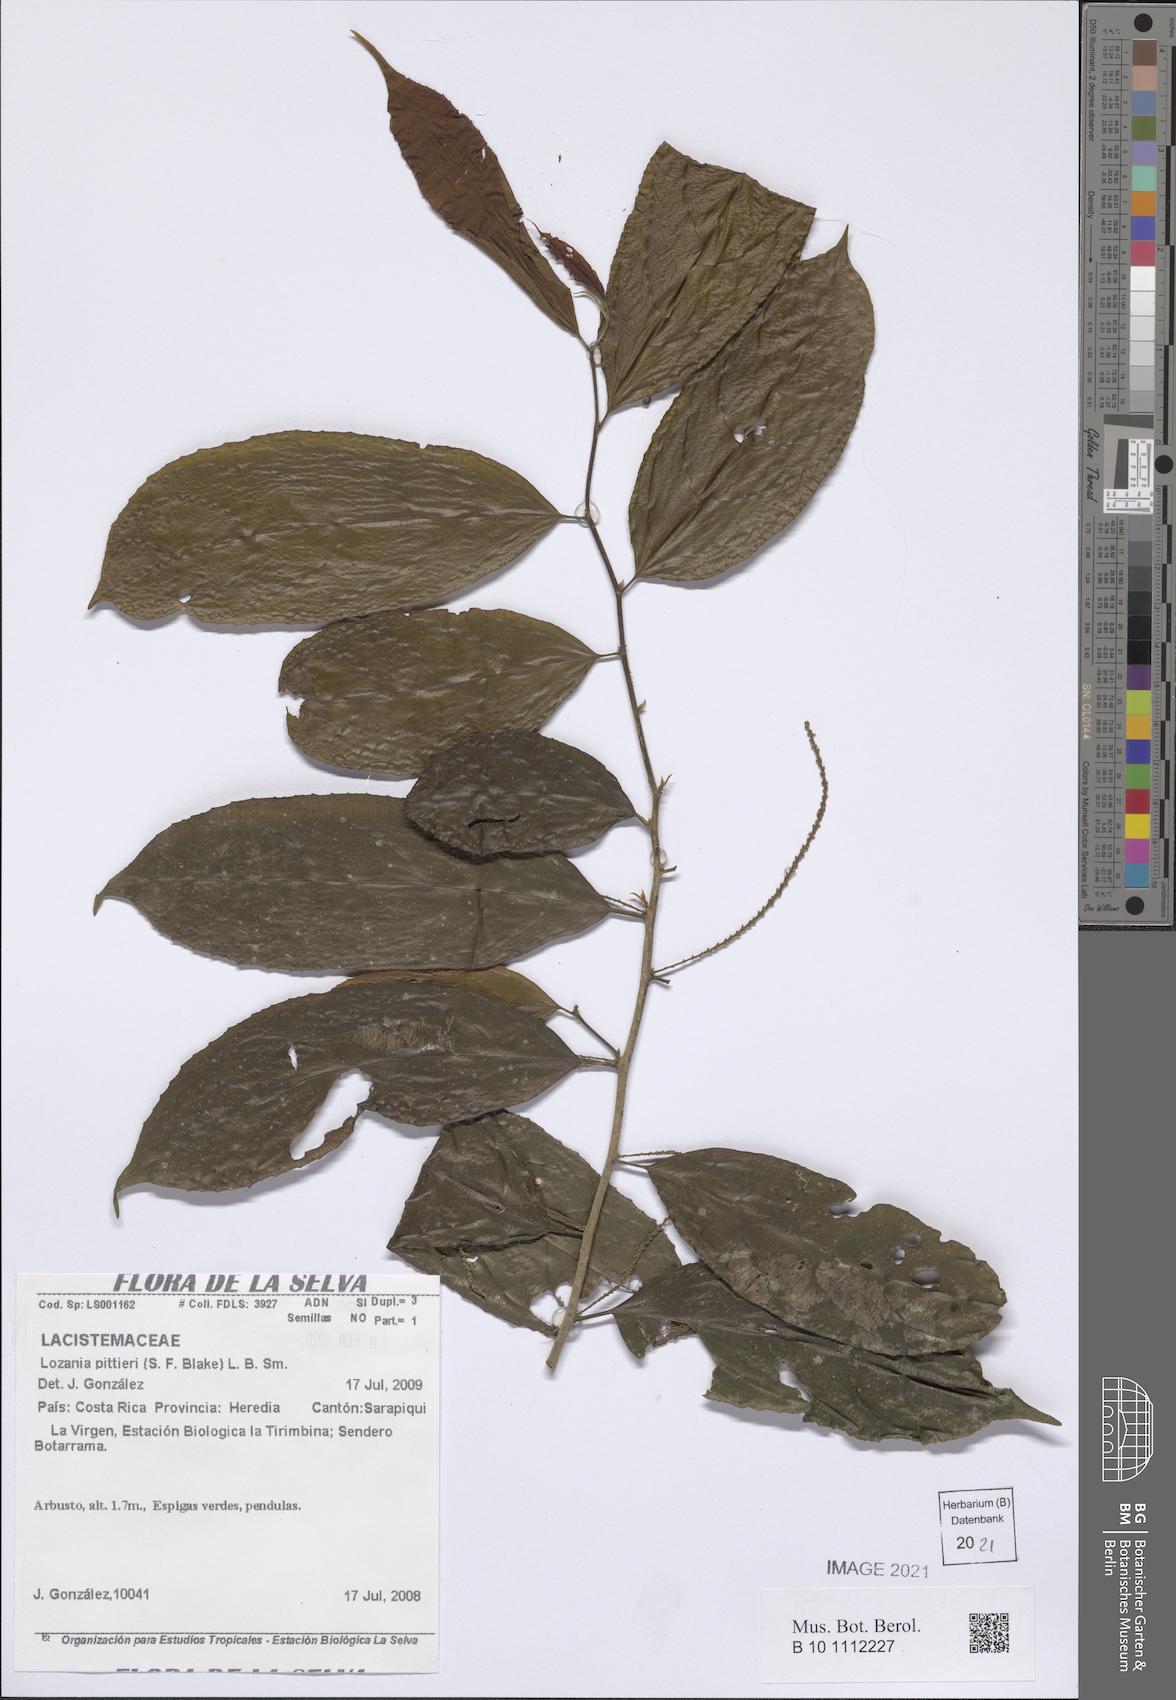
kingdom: Plantae
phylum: Tracheophyta
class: Magnoliopsida
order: Malpighiales
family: Lacistemataceae
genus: Lozania
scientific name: Lozania pittieri
